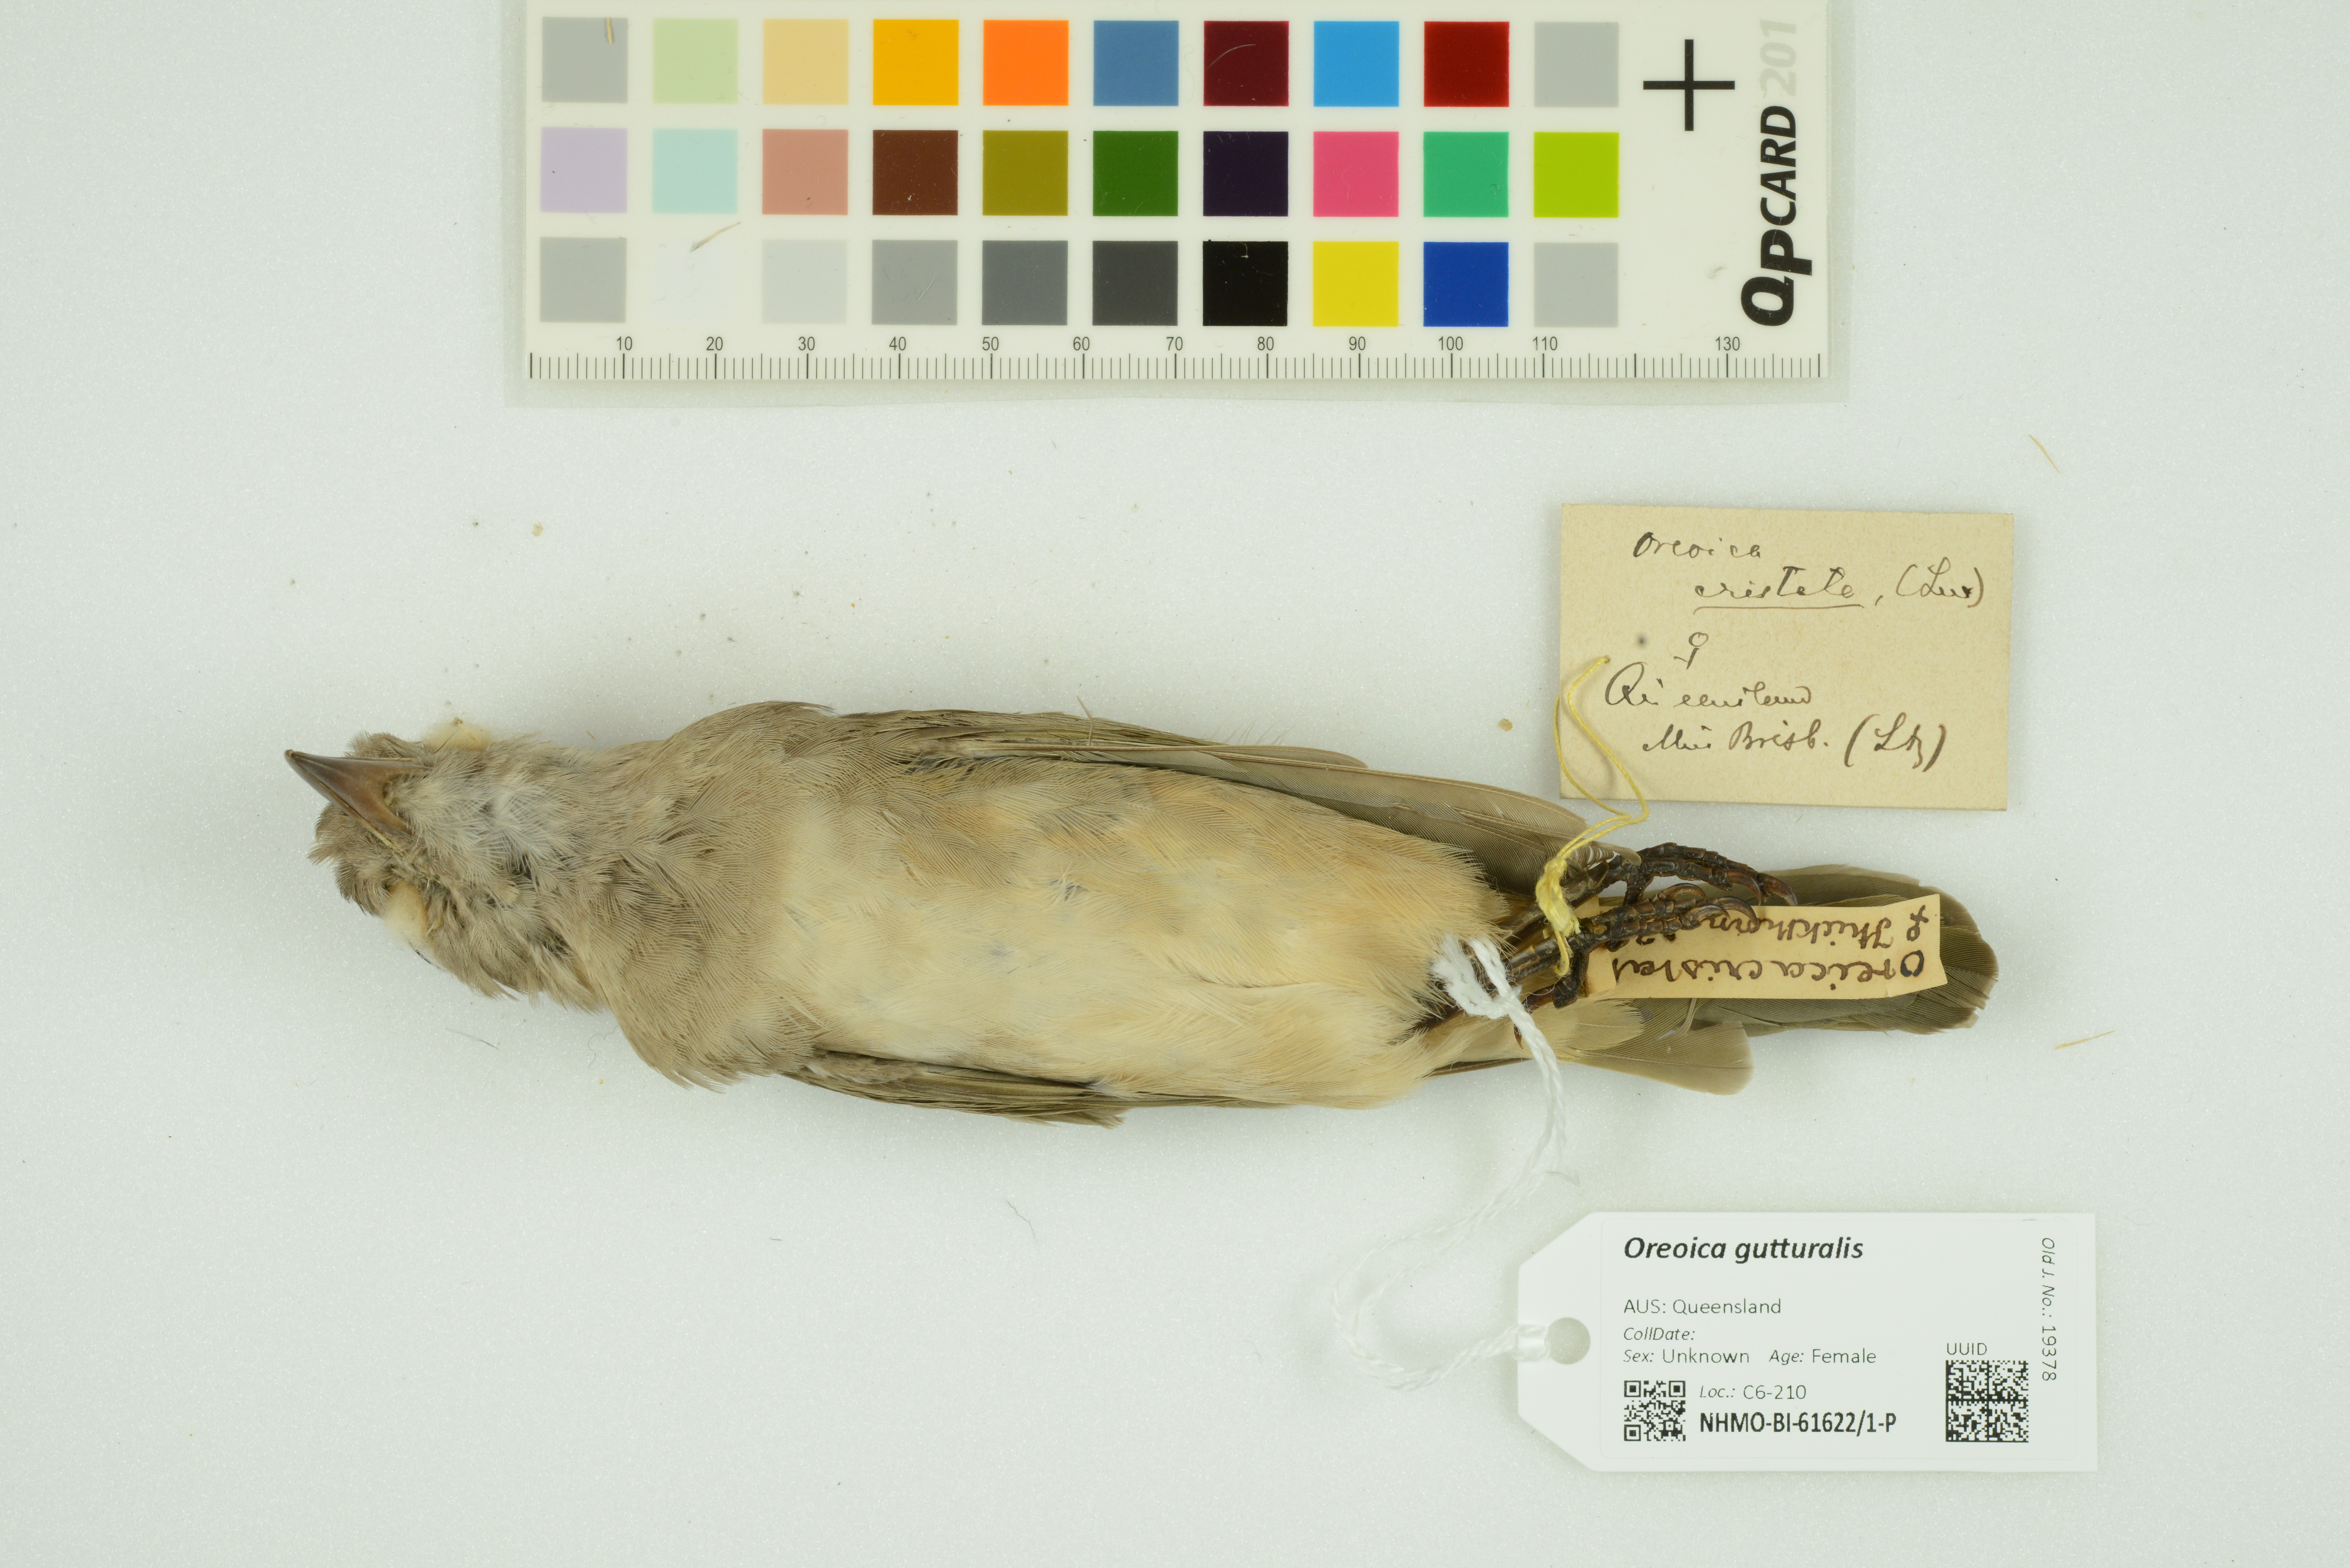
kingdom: Animalia
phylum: Chordata
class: Aves
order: Passeriformes
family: Oreoicidae
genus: Oreoica
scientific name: Oreoica gutturalis
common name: Crested bellbird
